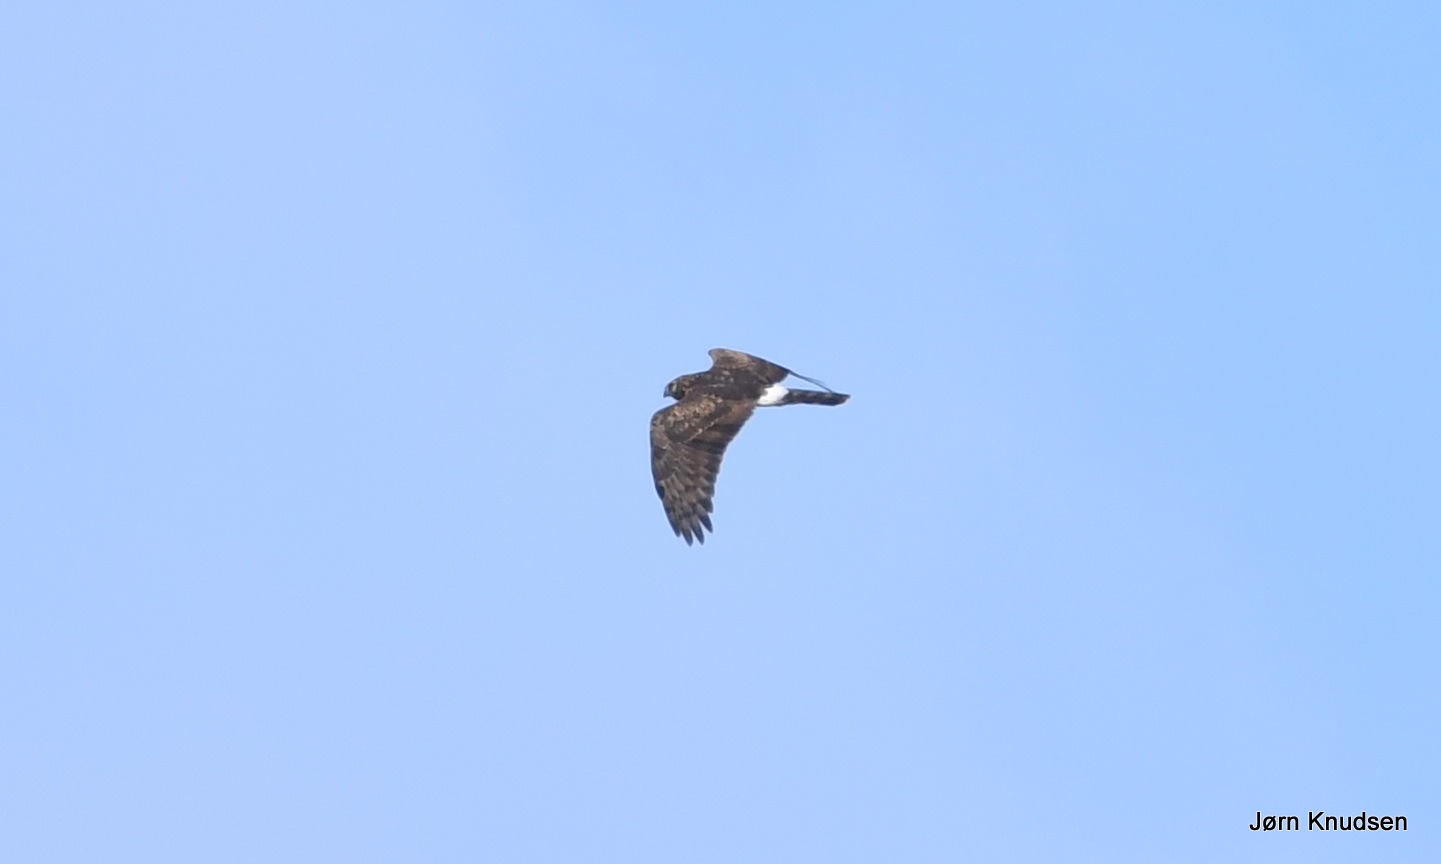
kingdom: Animalia
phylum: Chordata
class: Aves
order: Accipitriformes
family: Accipitridae
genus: Circus
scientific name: Circus cyaneus
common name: Blå kærhøg
